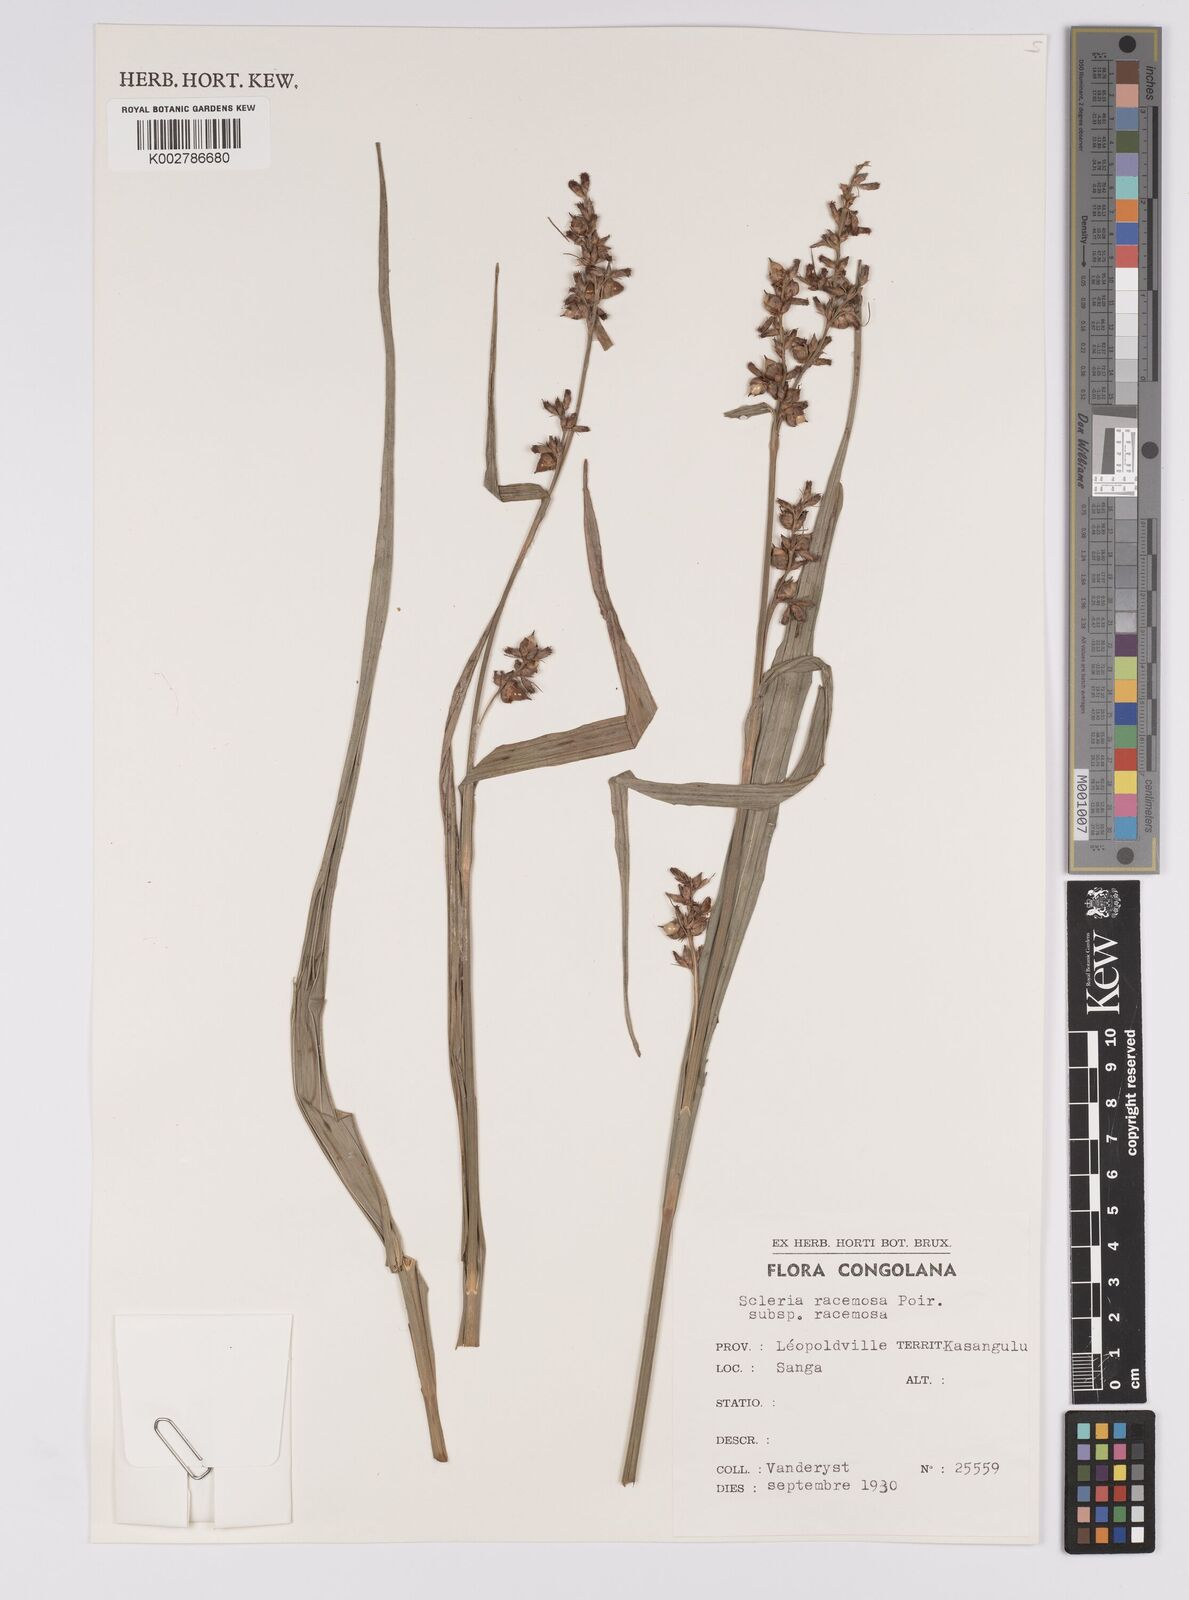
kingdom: Plantae
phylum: Tracheophyta
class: Liliopsida
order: Poales
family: Cyperaceae
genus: Scleria
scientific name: Scleria racemosa
